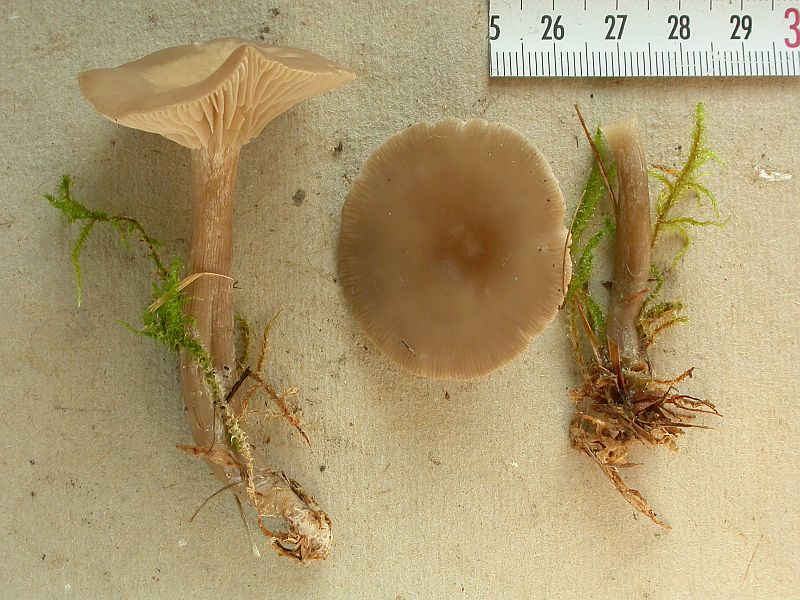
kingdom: Fungi
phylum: Basidiomycota
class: Agaricomycetes
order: Agaricales
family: Tricholomataceae
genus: Clitocybe
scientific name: Clitocybe metachroa
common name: grå tragthat
